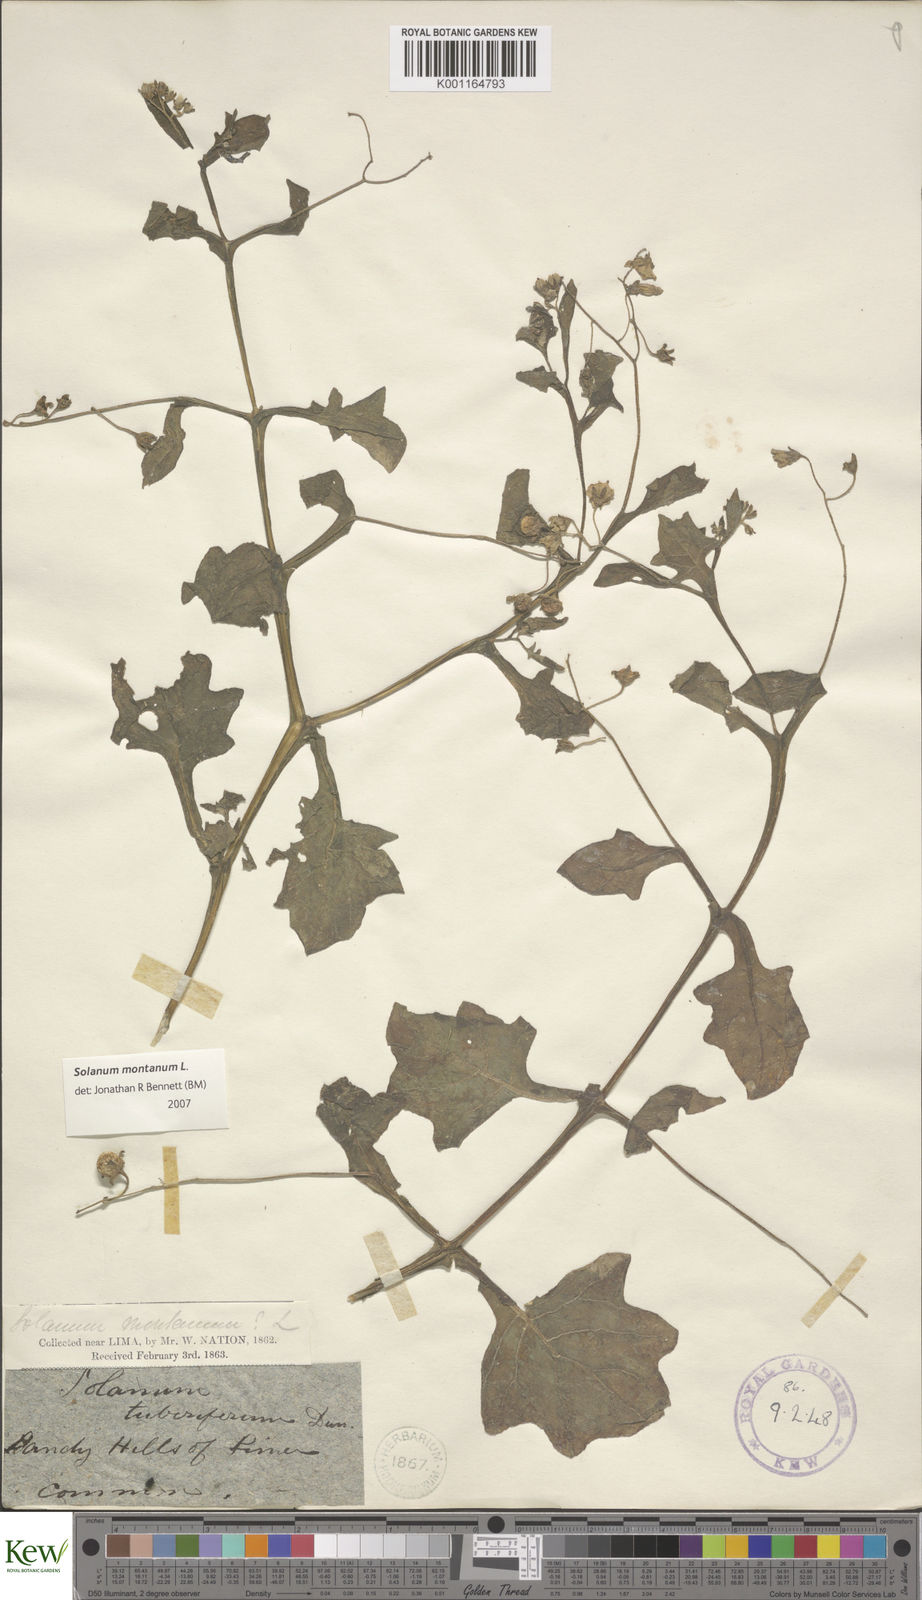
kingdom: Plantae
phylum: Tracheophyta
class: Magnoliopsida
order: Solanales
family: Solanaceae
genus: Solanum
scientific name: Solanum montanum
